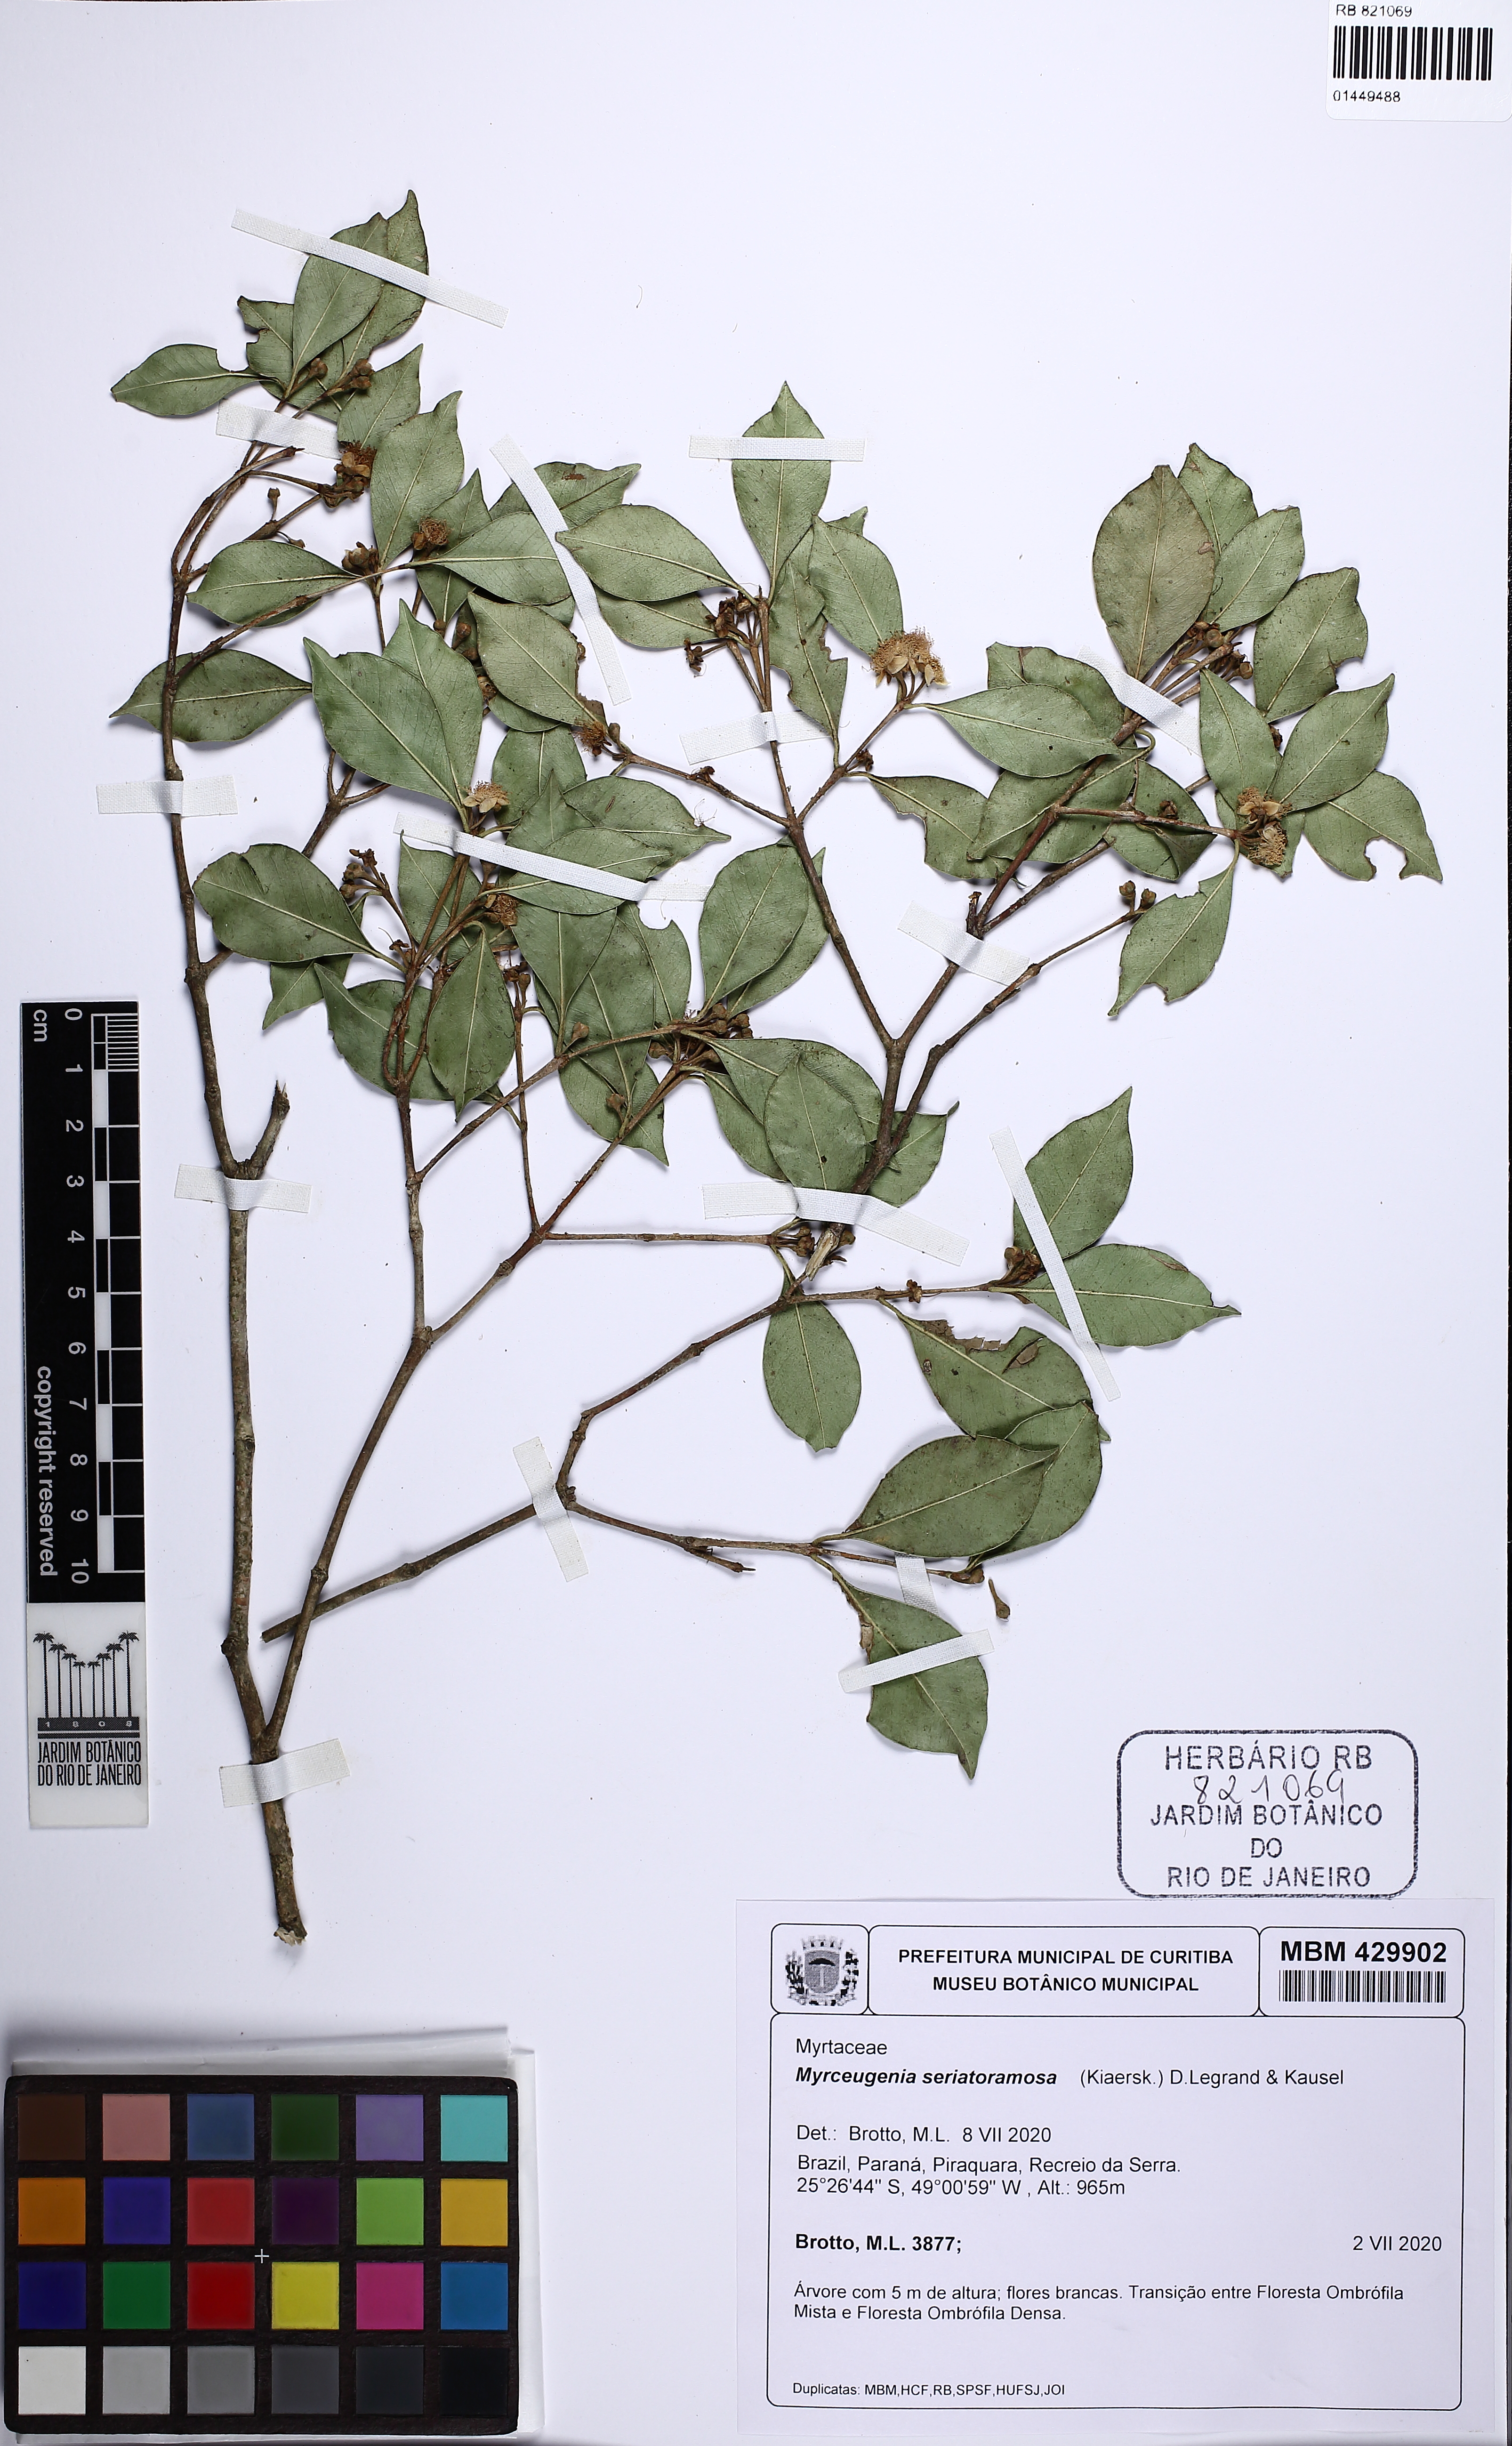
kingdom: Plantae
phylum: Tracheophyta
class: Magnoliopsida
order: Myrtales
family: Myrtaceae
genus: Myrceugenia
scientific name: Myrceugenia seriato-ramosa
